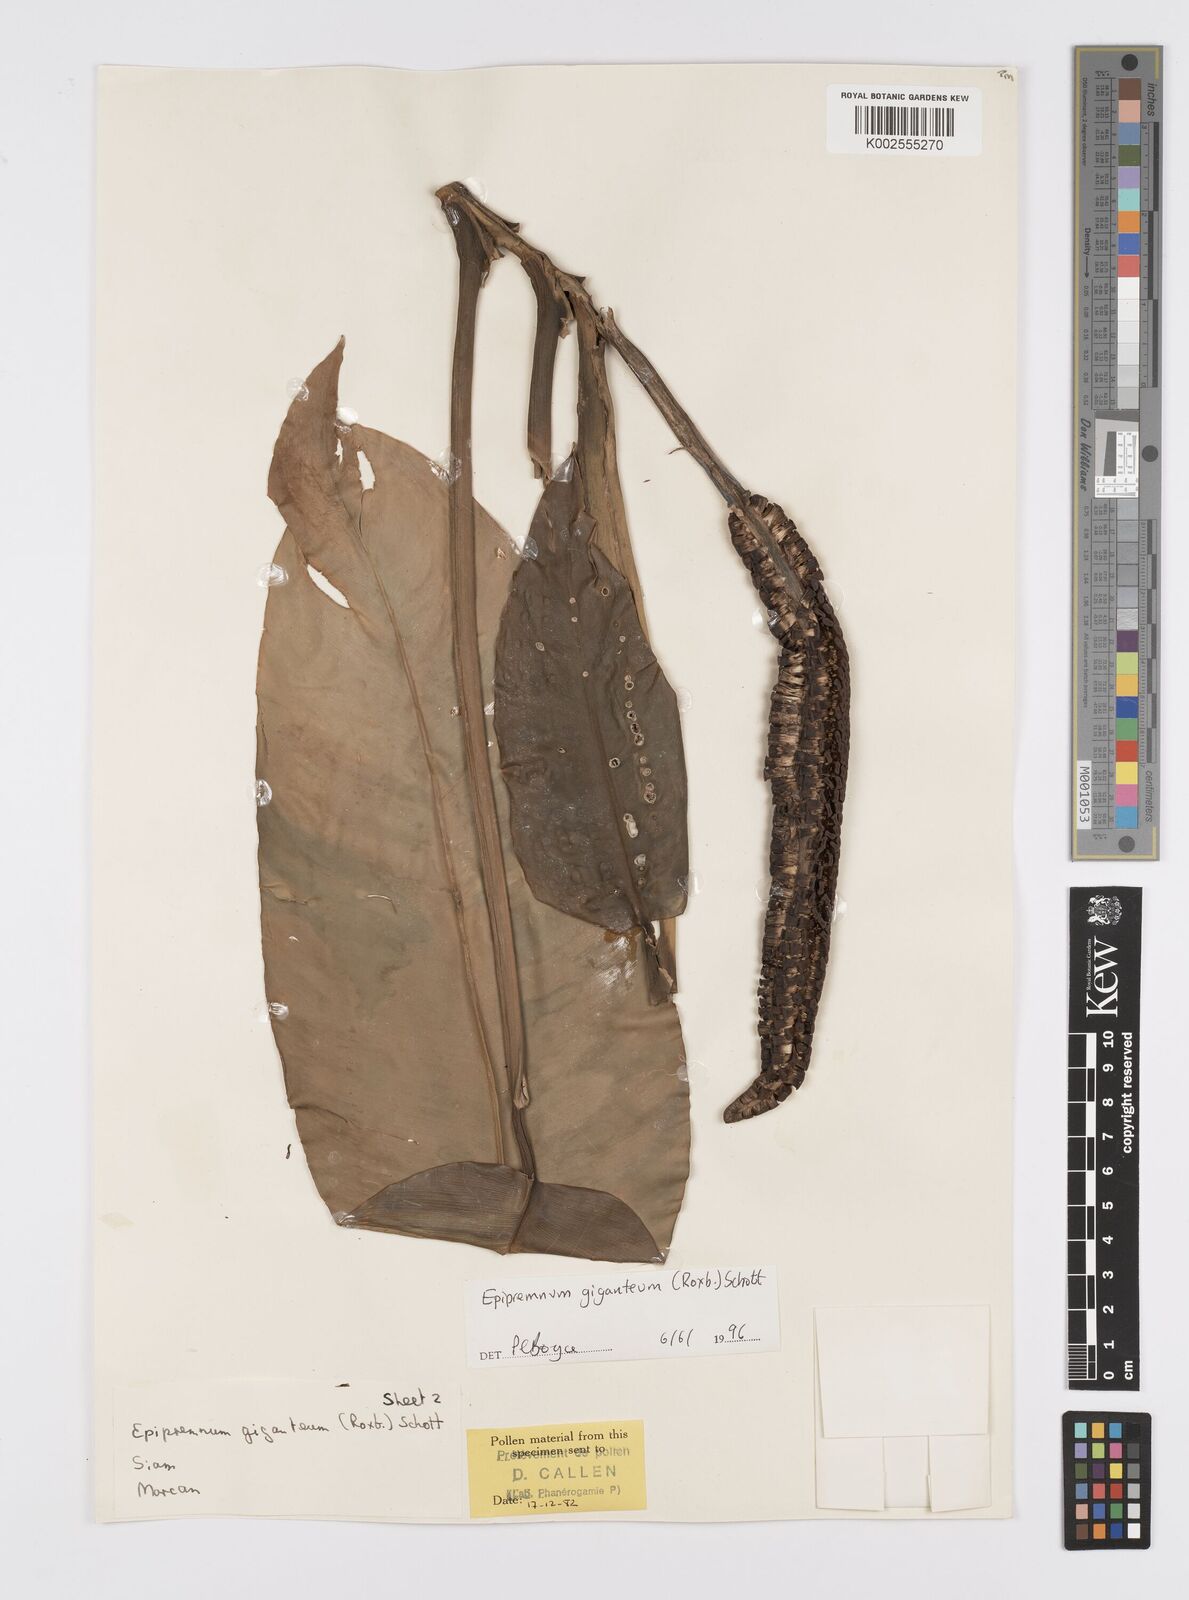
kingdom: Plantae
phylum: Tracheophyta
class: Liliopsida
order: Alismatales
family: Araceae
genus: Epipremnum
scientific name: Epipremnum giganteum
